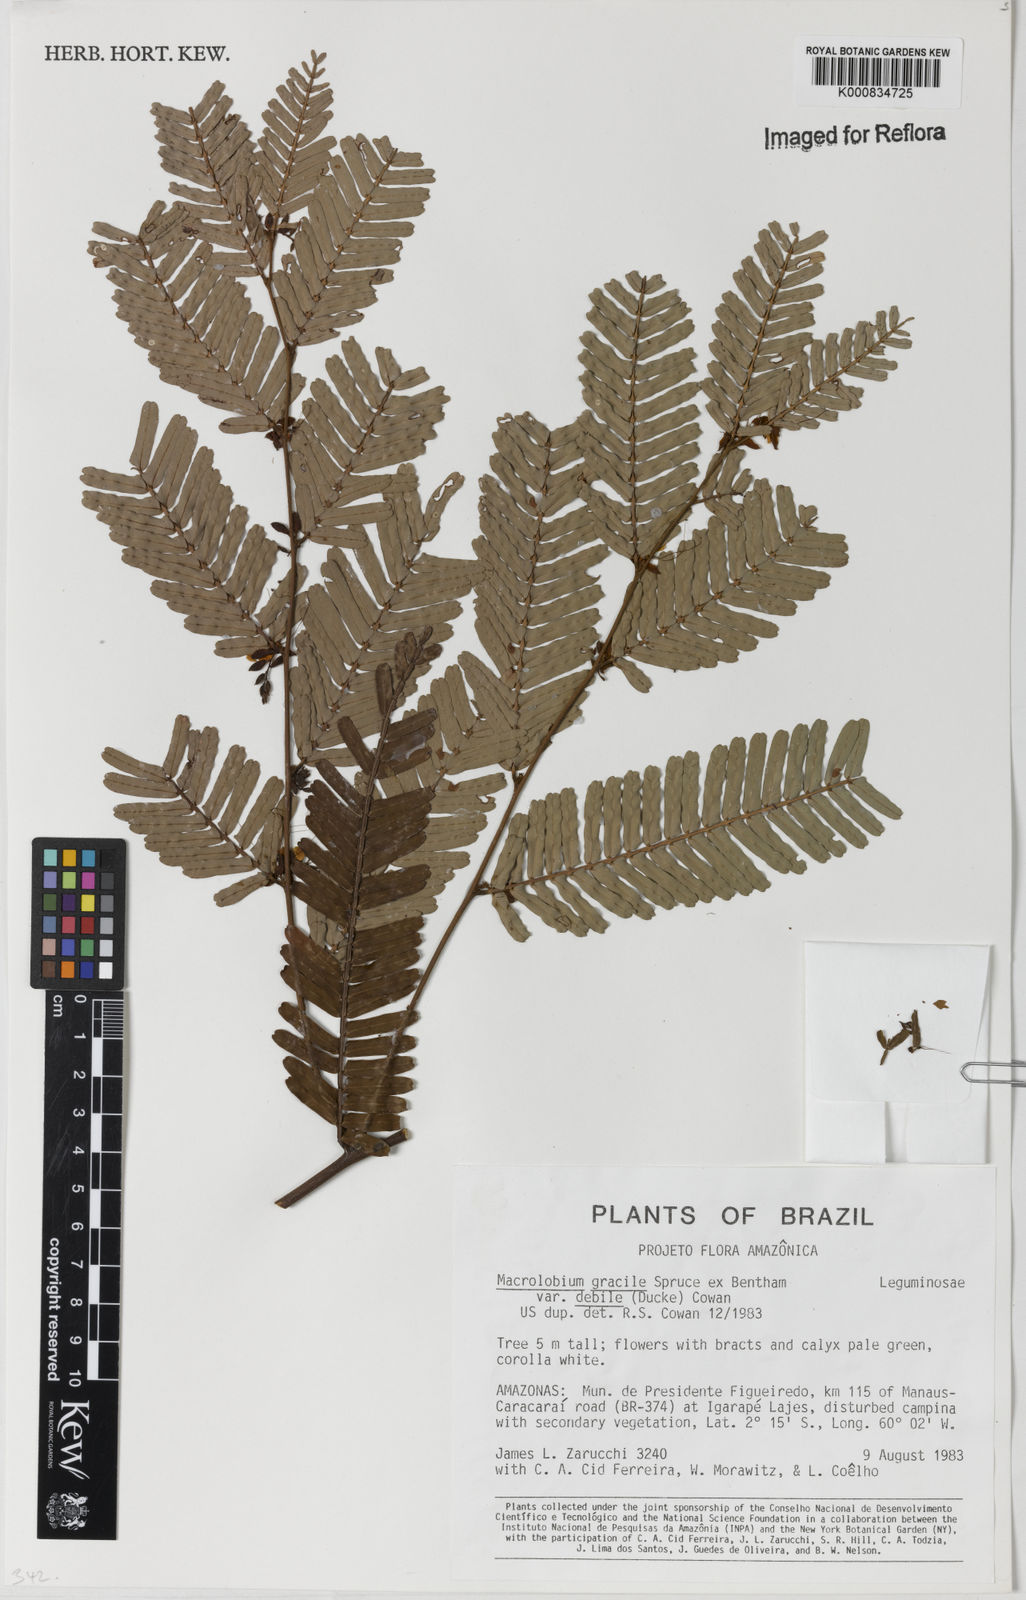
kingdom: Plantae
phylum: Tracheophyta
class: Magnoliopsida
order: Fabales
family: Fabaceae
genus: Macrolobium
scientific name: Macrolobium gracile
